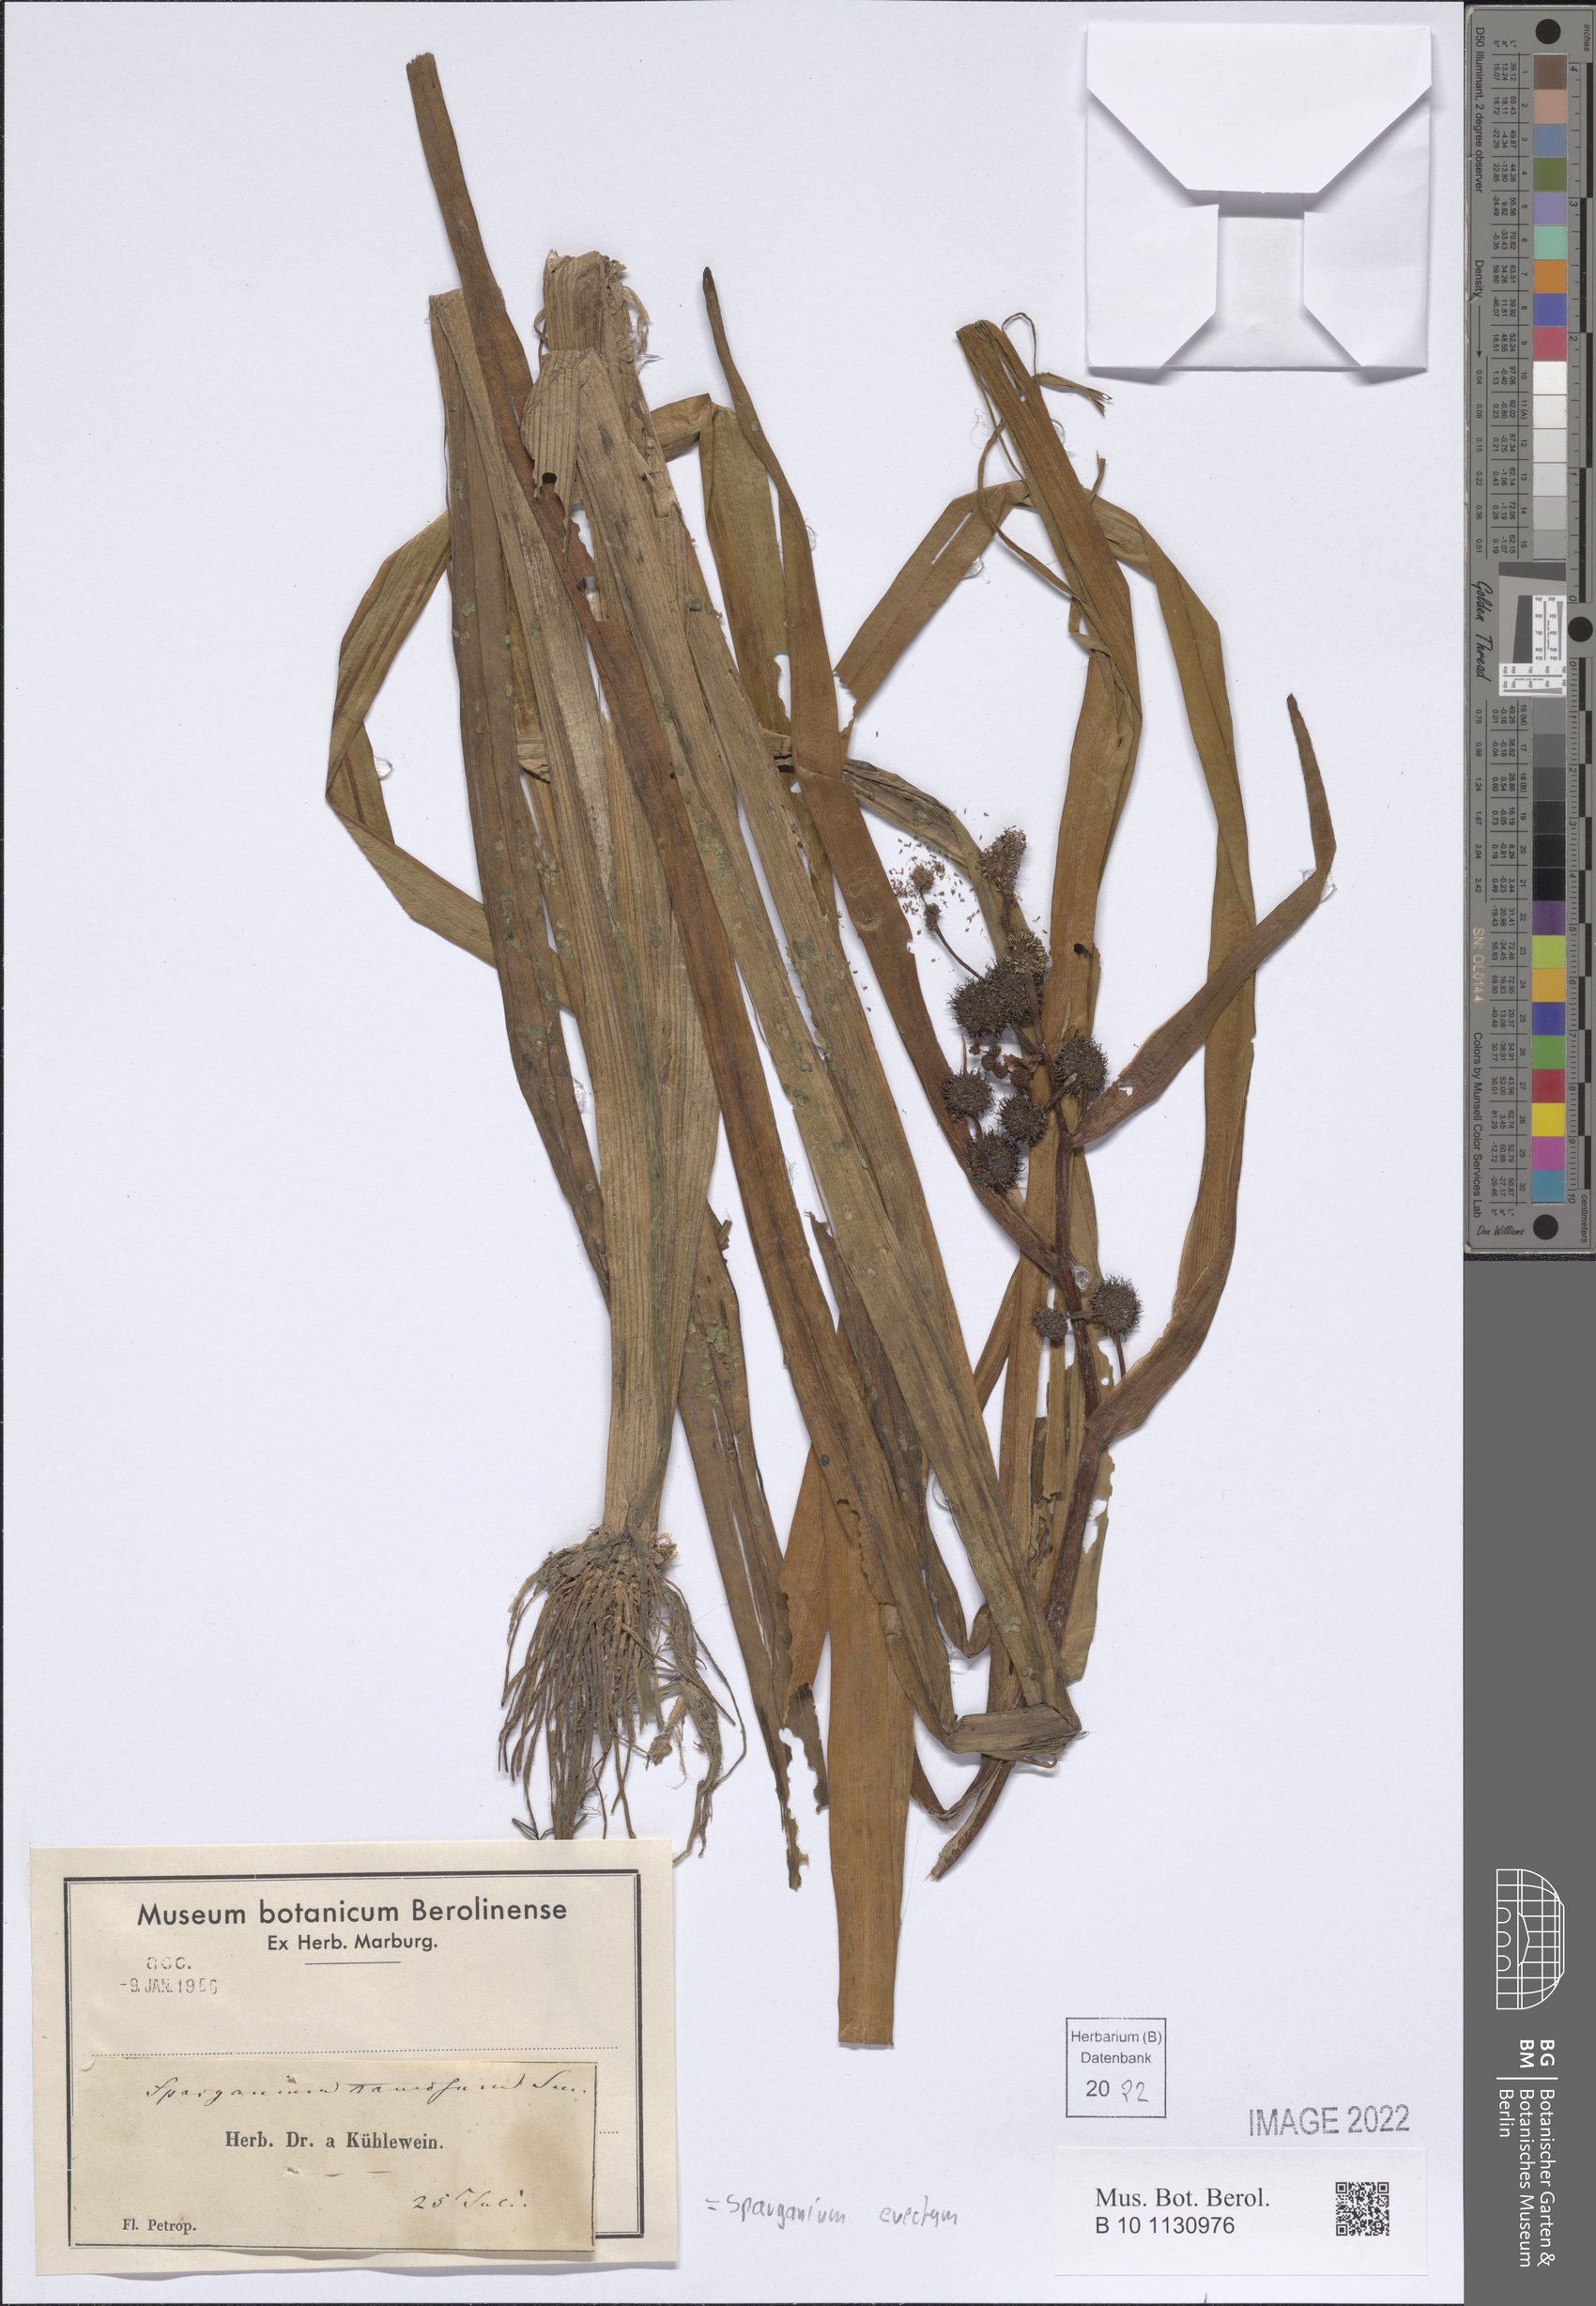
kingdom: Plantae
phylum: Tracheophyta
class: Liliopsida
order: Poales
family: Typhaceae
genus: Sparganium
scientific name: Sparganium erectum
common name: Branched bur-reed
